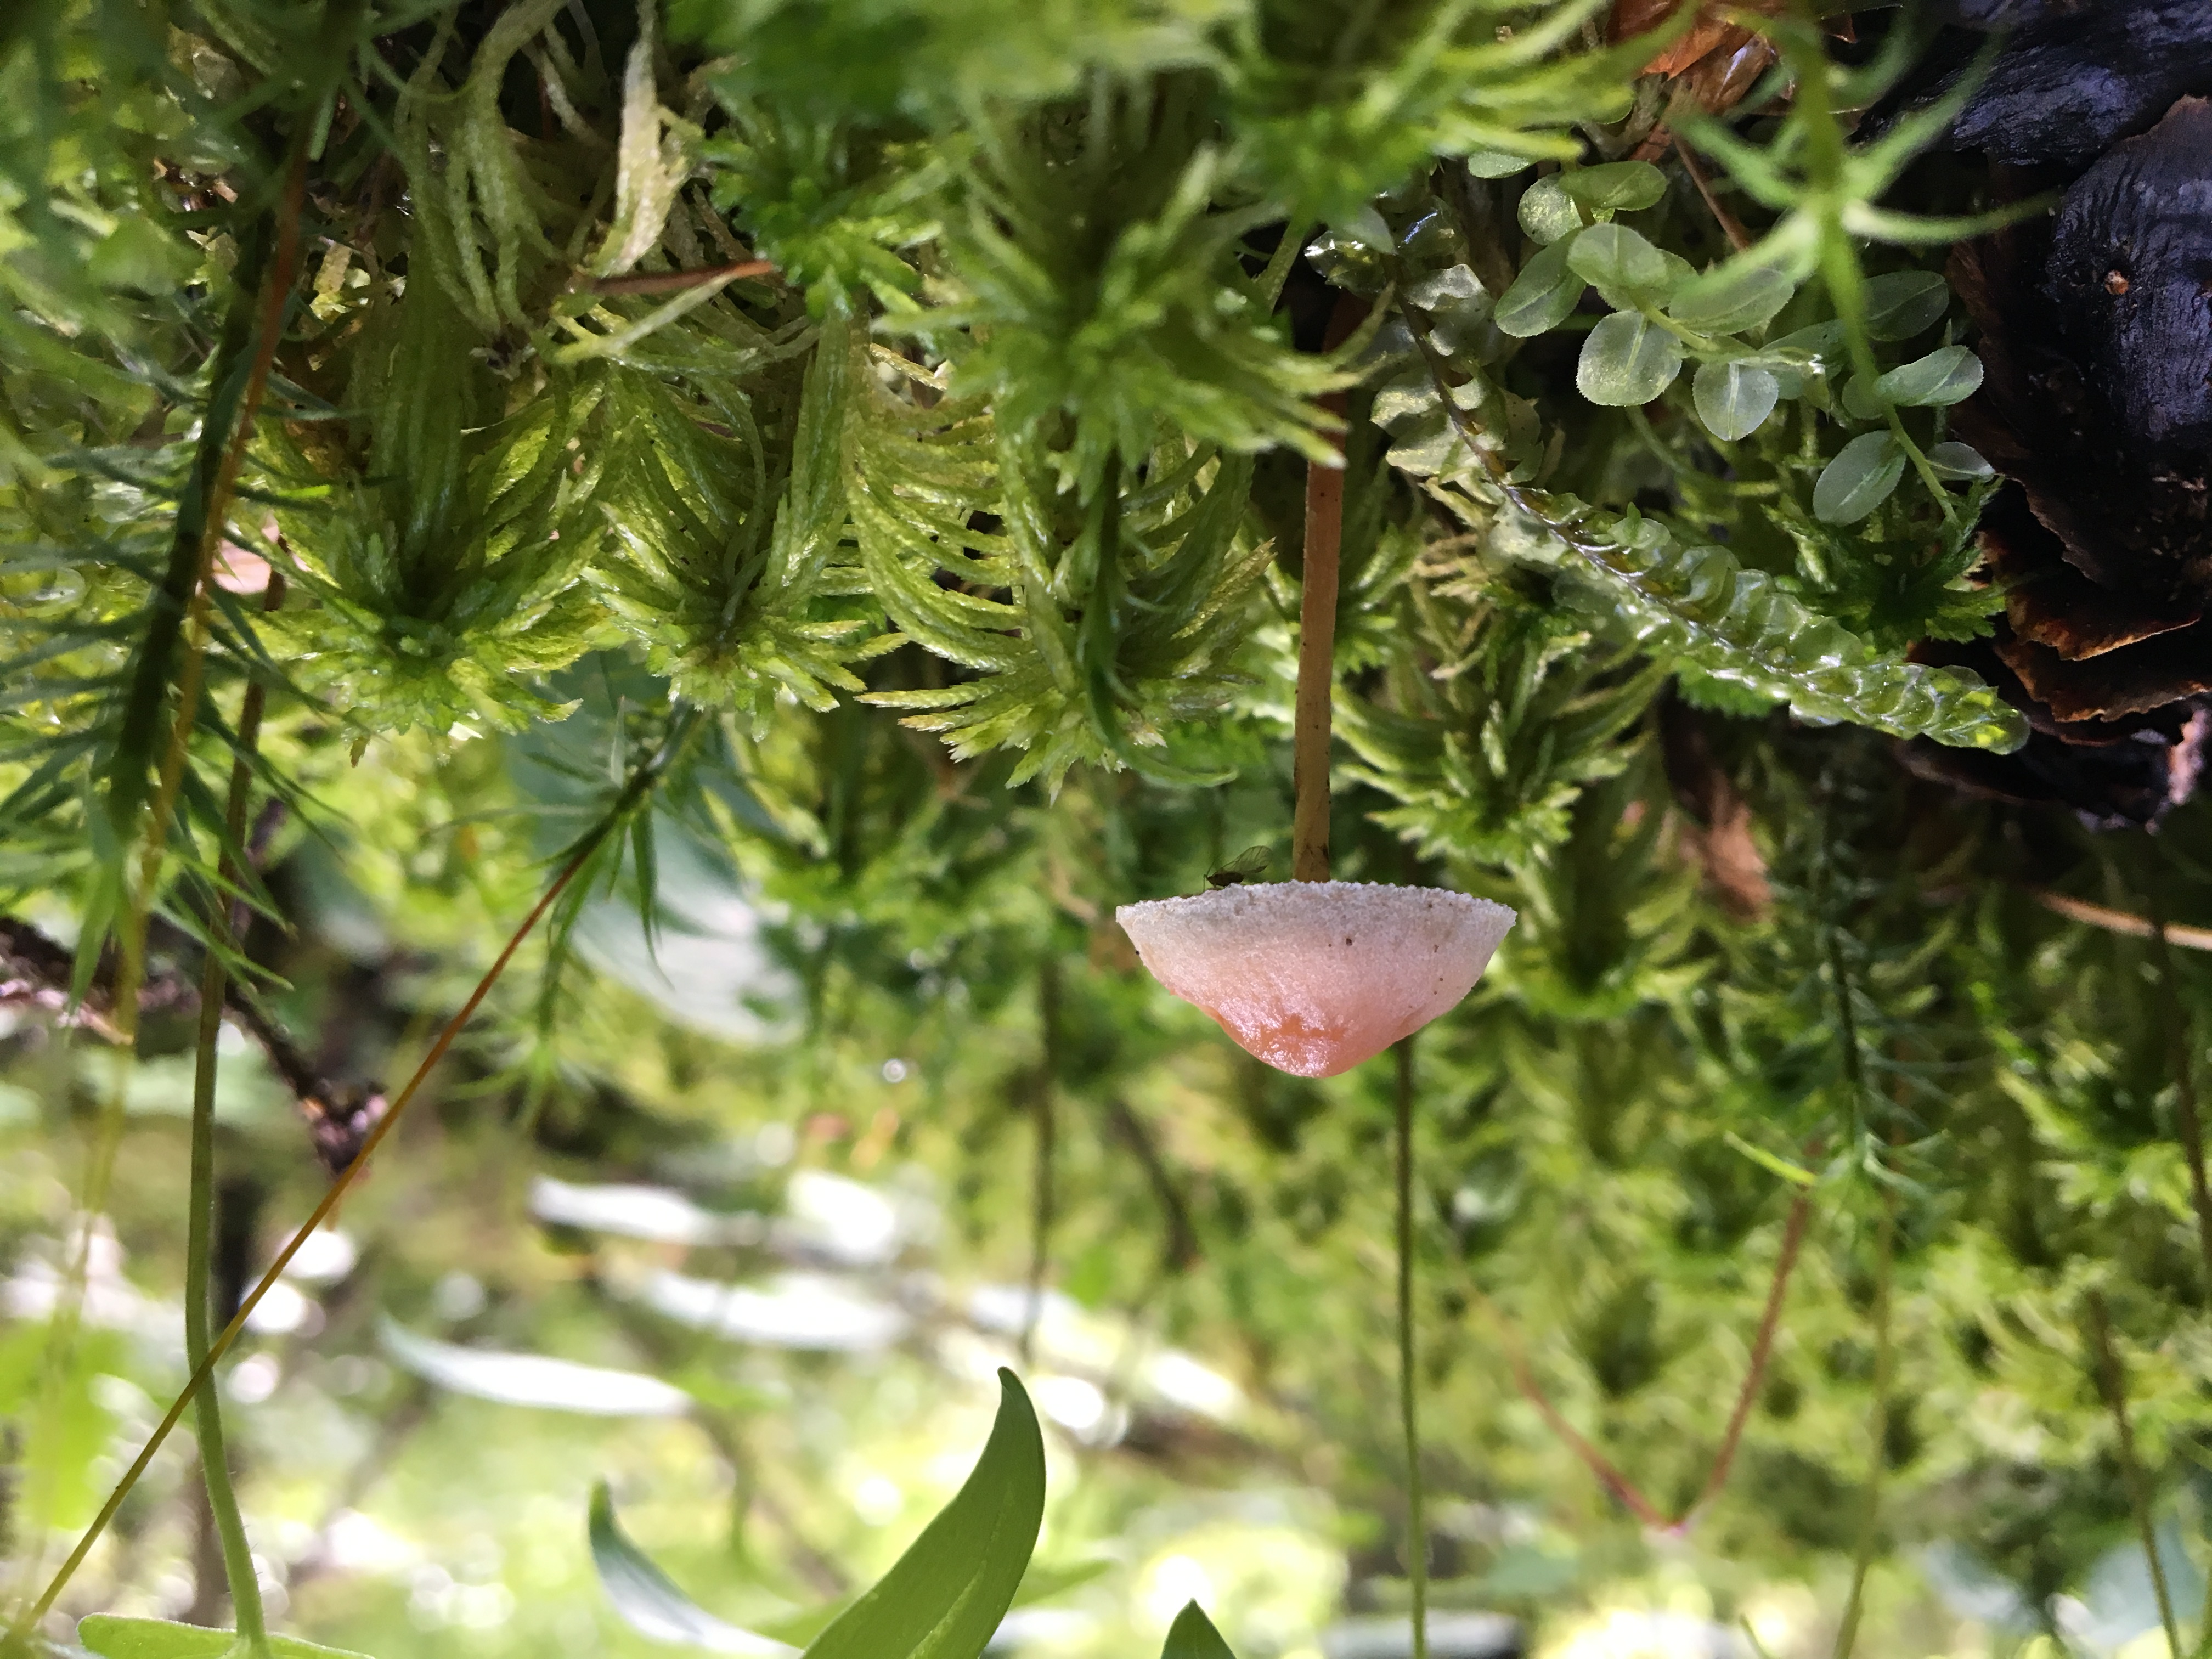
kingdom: Fungi
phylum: Basidiomycota
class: Agaricomycetes
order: Agaricales
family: Strophariaceae
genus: Hypholoma
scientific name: Hypholoma polytrichi
